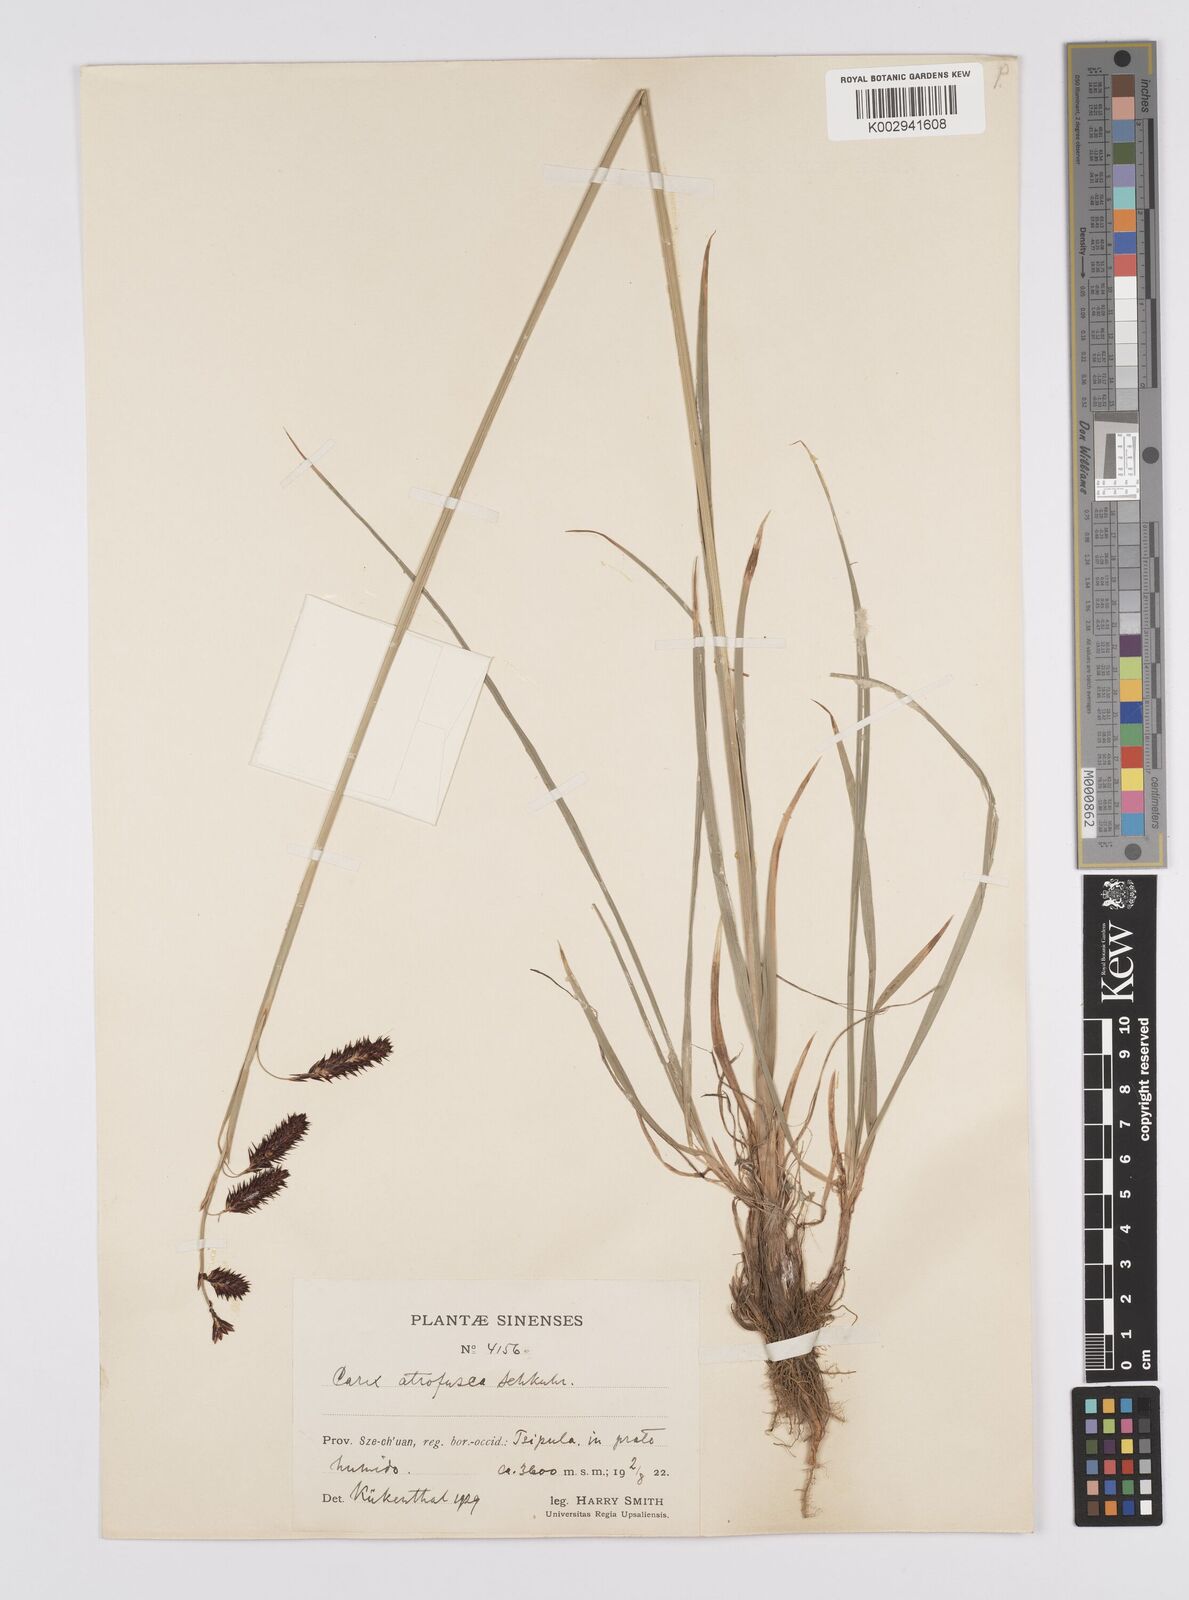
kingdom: Plantae
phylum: Tracheophyta
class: Liliopsida
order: Poales
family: Cyperaceae
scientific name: Cyperaceae
